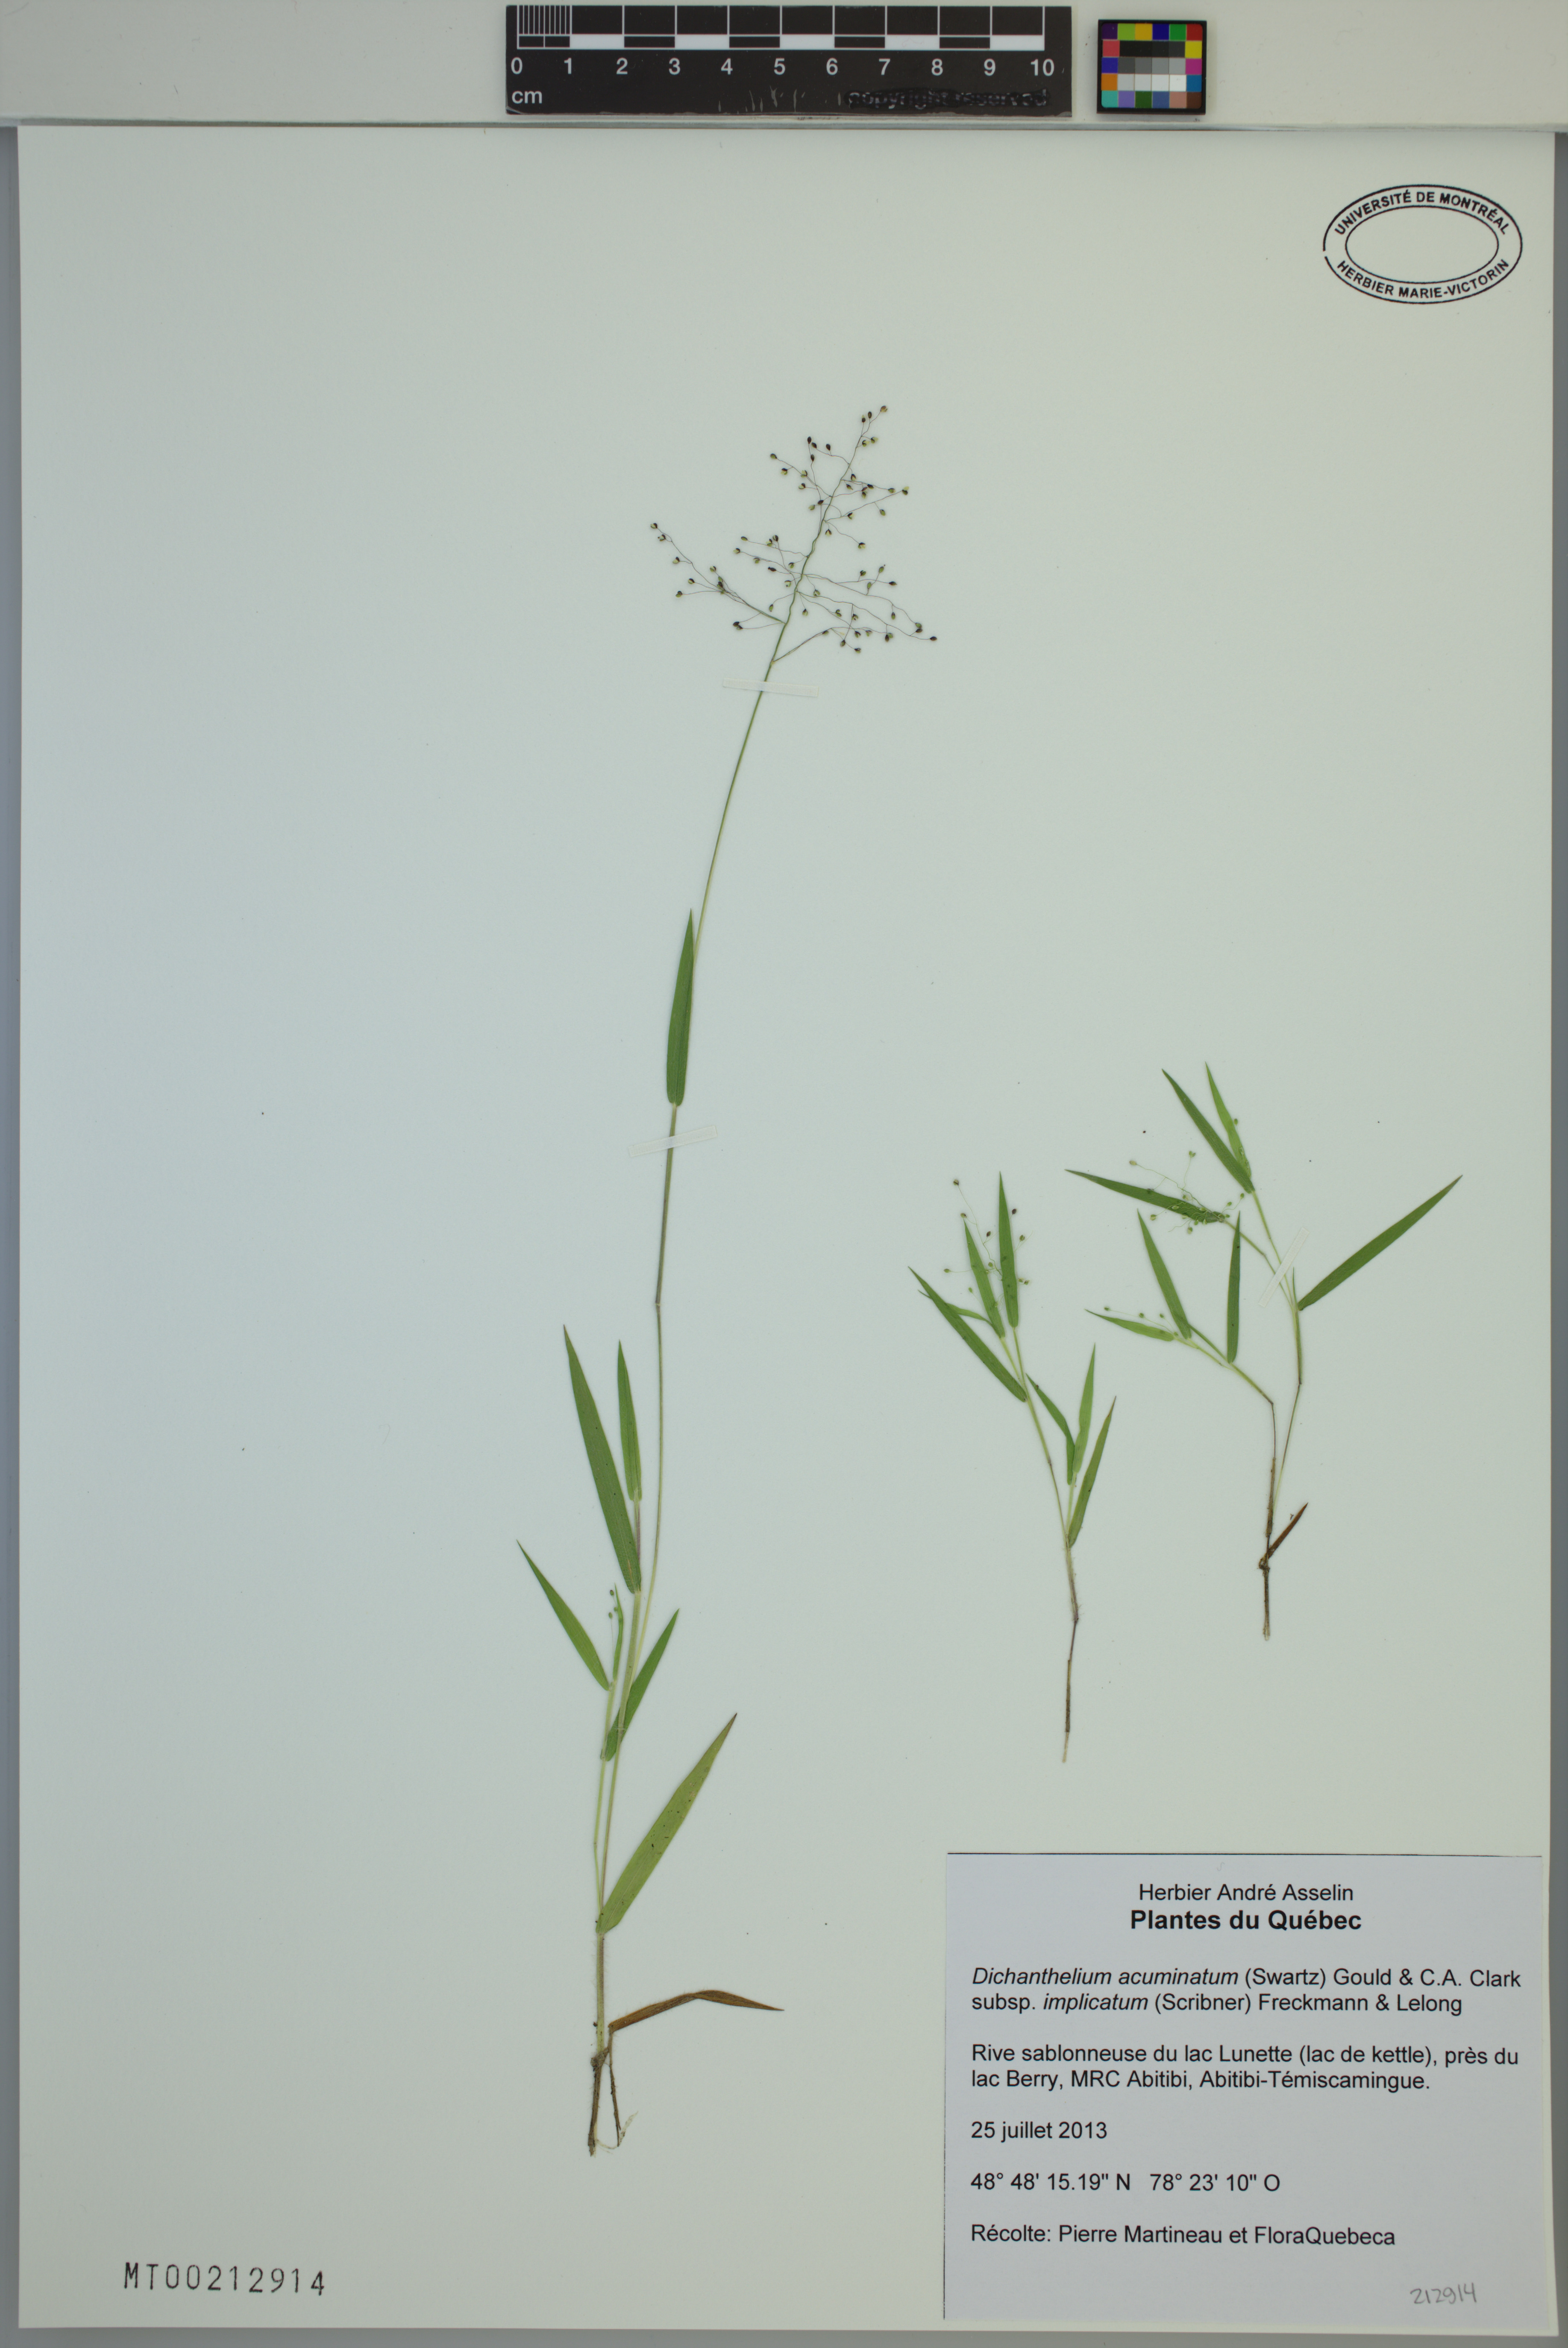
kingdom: Plantae
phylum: Tracheophyta
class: Liliopsida
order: Poales
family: Poaceae
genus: Dichanthelium
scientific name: Dichanthelium implicatum
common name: Slender-stemmed panicgrass
